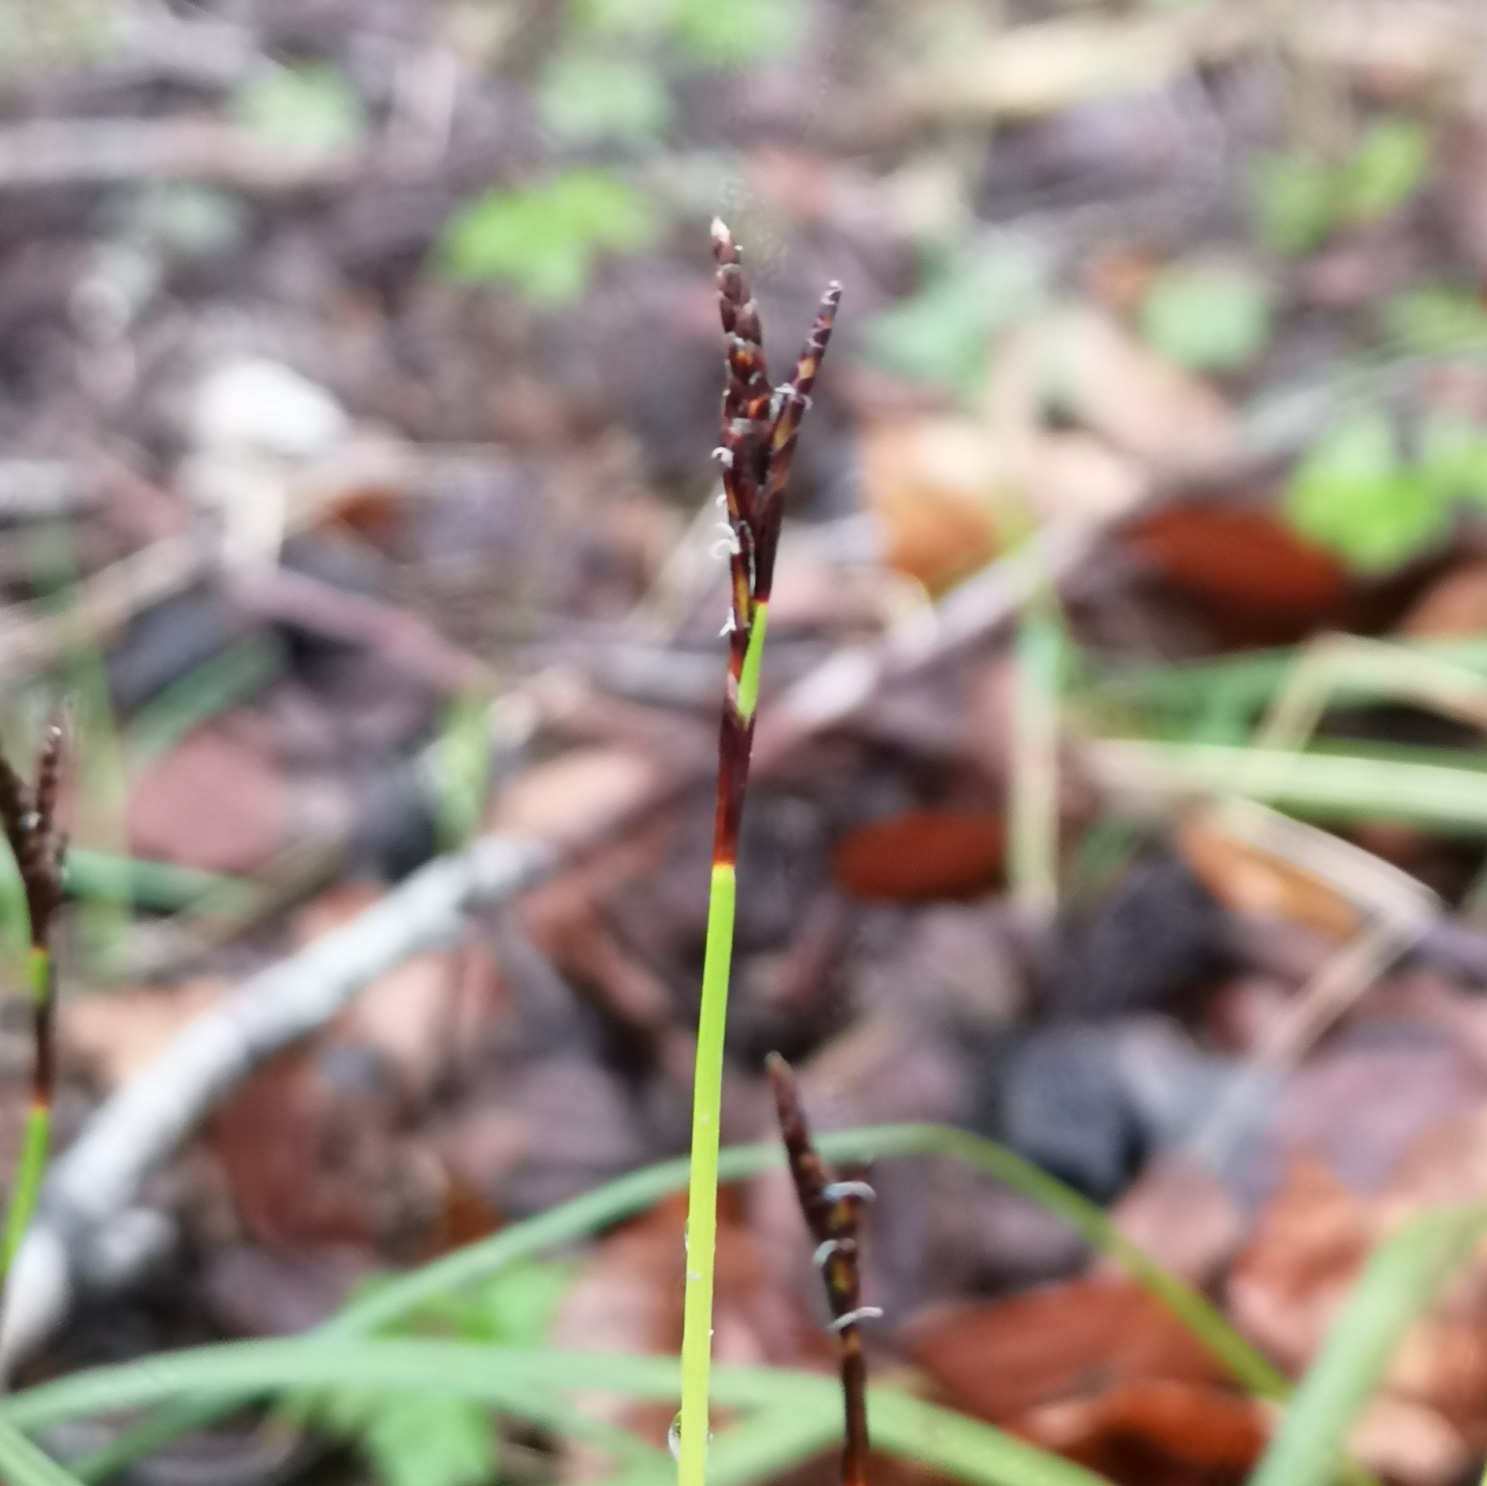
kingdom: Plantae
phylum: Tracheophyta
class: Liliopsida
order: Poales
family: Cyperaceae
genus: Carex
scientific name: Carex digitata
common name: Finger-star
